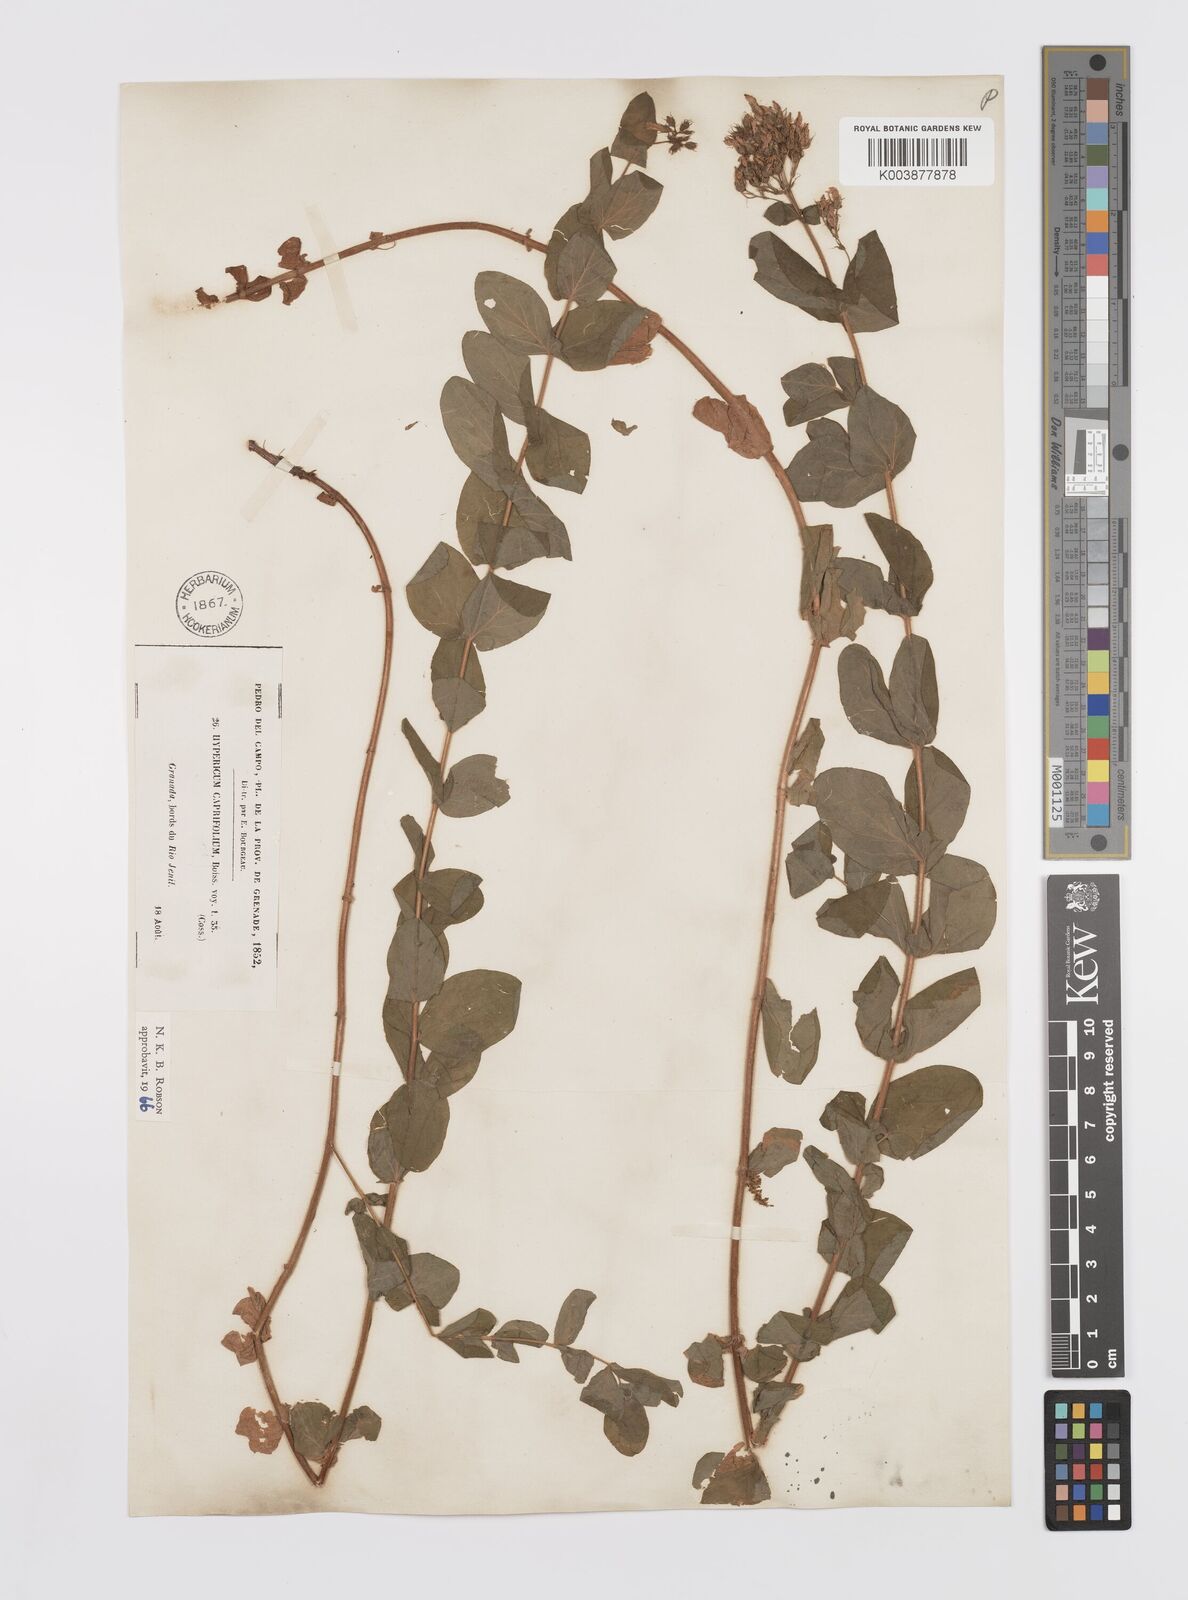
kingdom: Plantae
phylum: Tracheophyta
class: Magnoliopsida
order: Malpighiales
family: Hypericaceae
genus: Hypericum
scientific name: Hypericum caprifolium
